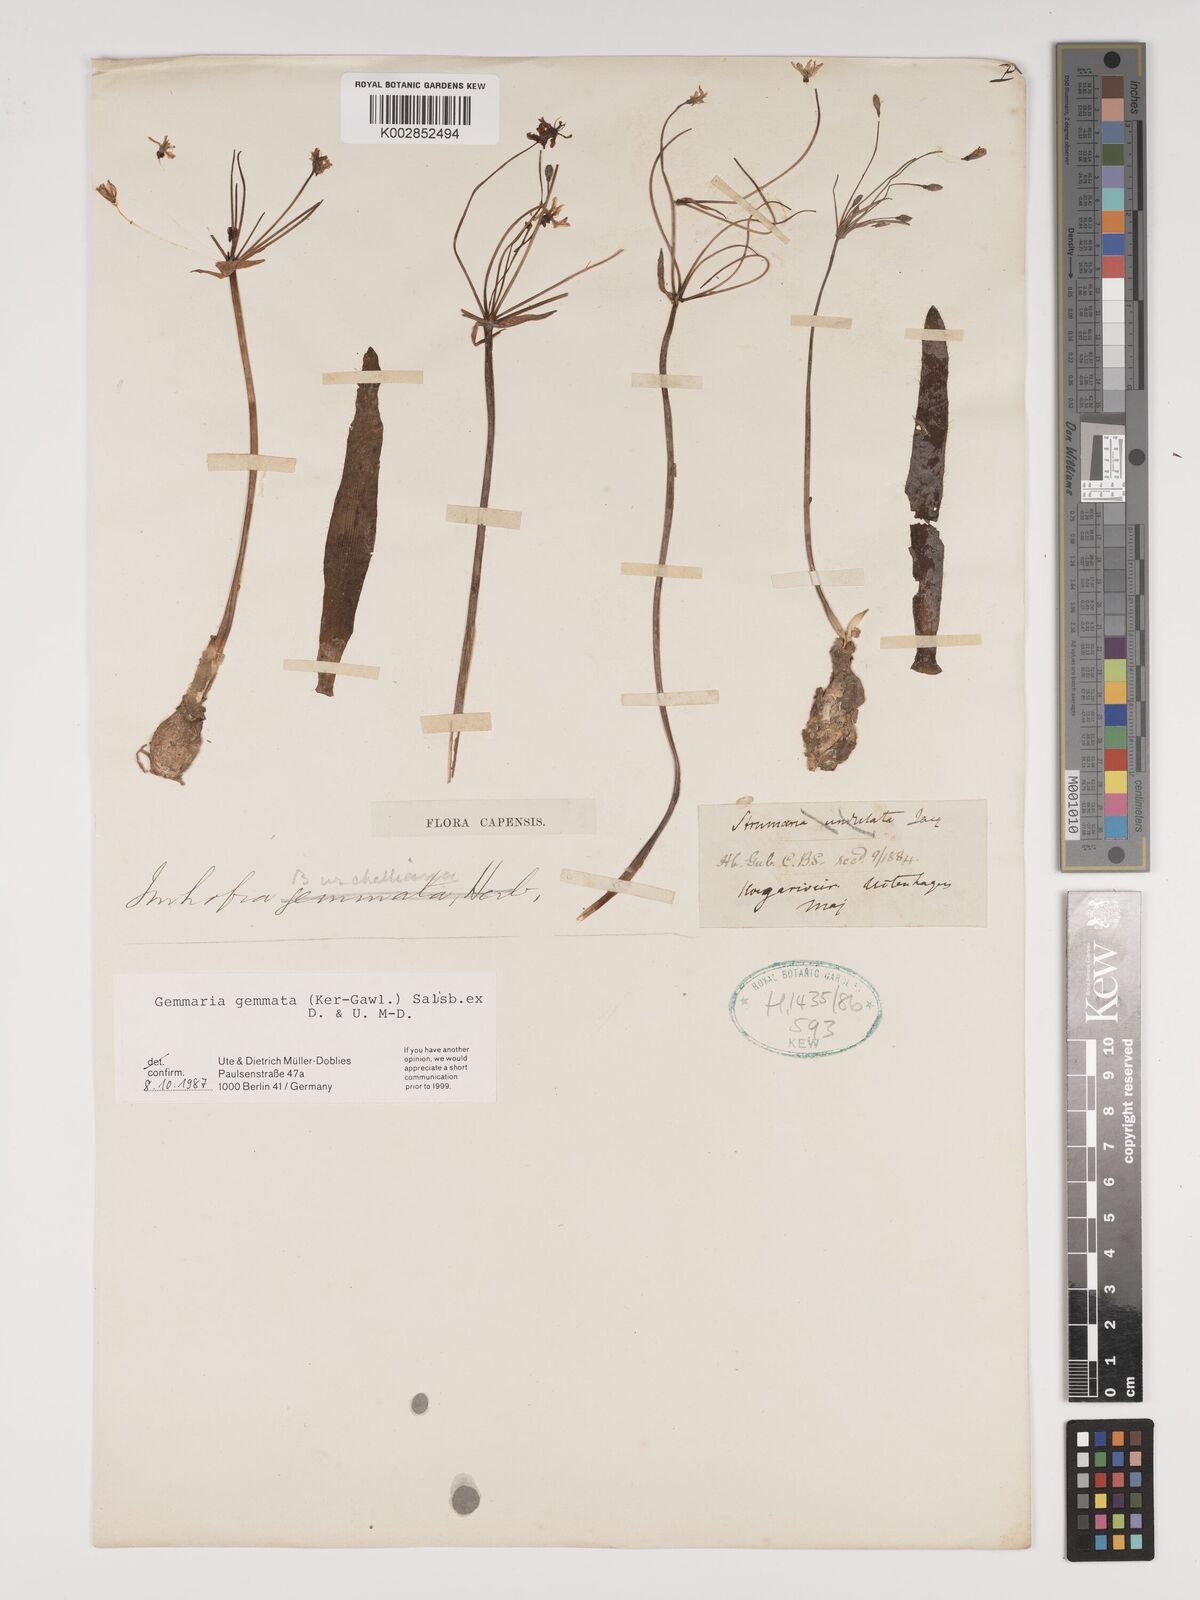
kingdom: Plantae
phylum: Tracheophyta
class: Liliopsida
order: Asparagales
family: Amaryllidaceae
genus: Strumaria
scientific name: Strumaria gemmata
